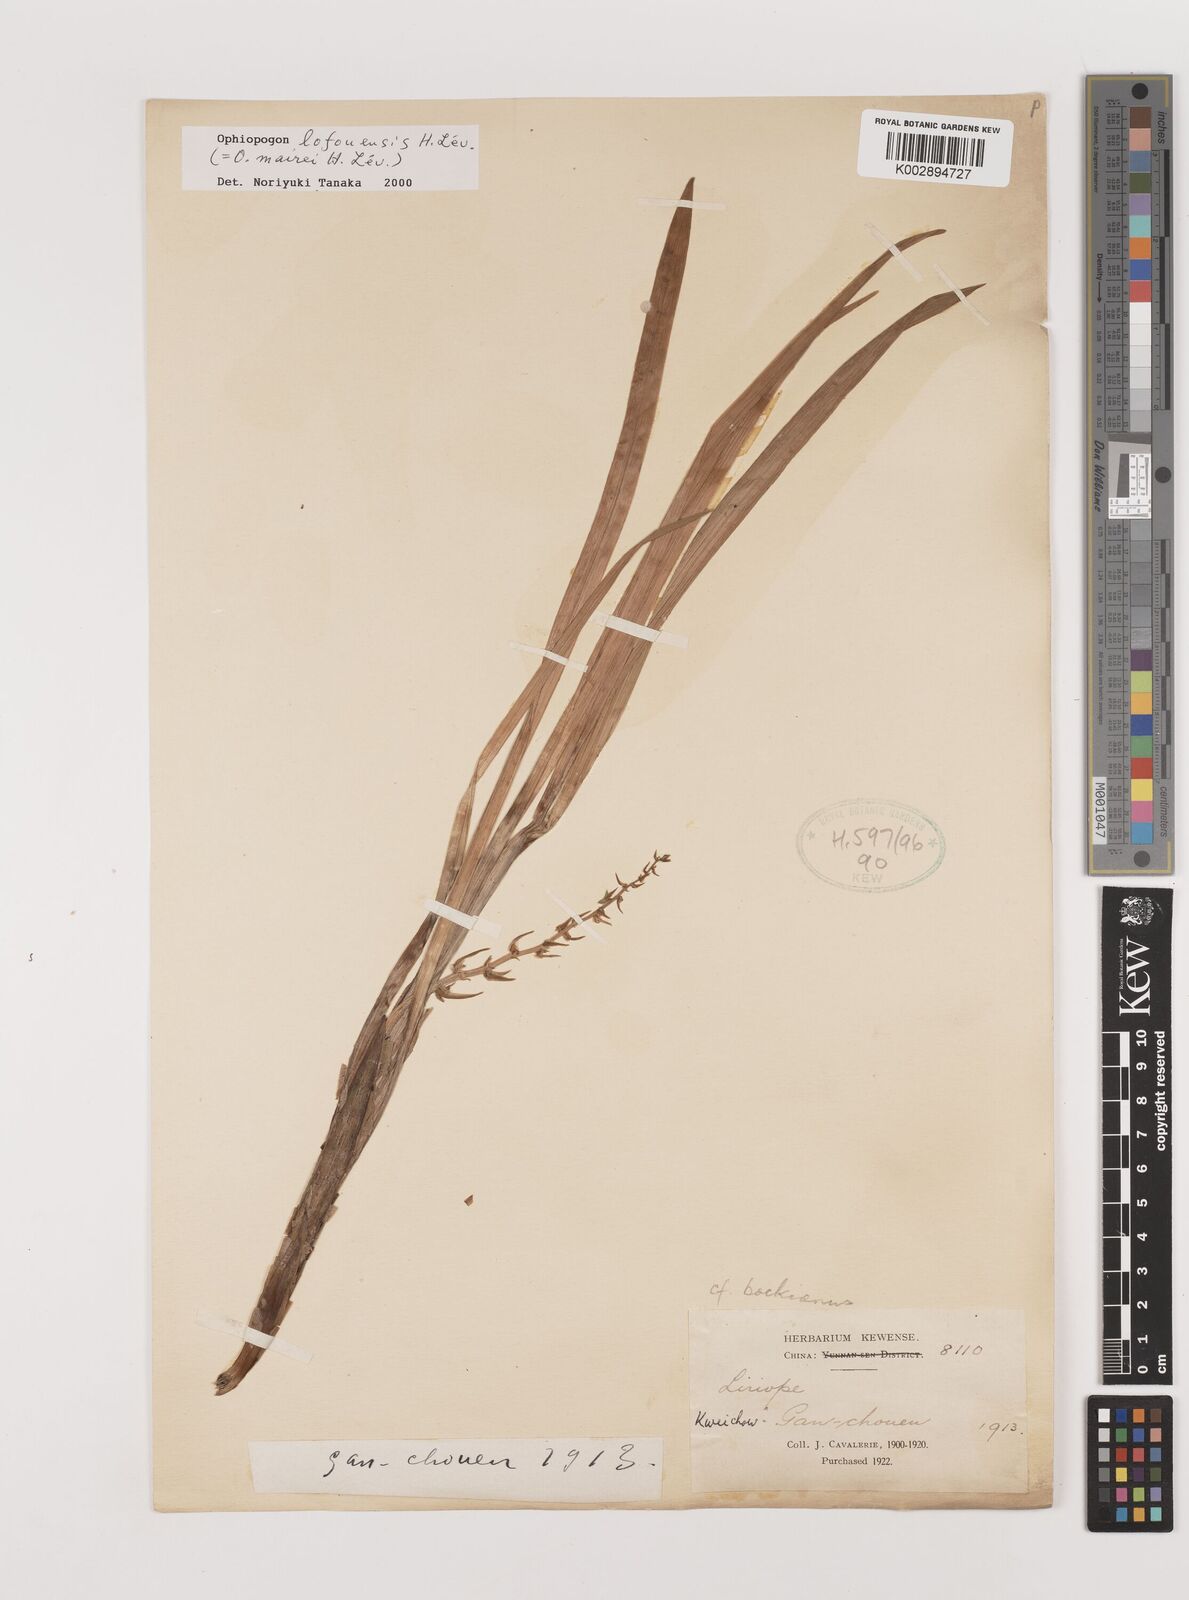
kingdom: Plantae
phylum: Tracheophyta
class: Liliopsida
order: Asparagales
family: Asparagaceae
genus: Ophiopogon
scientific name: Ophiopogon bodinieri
